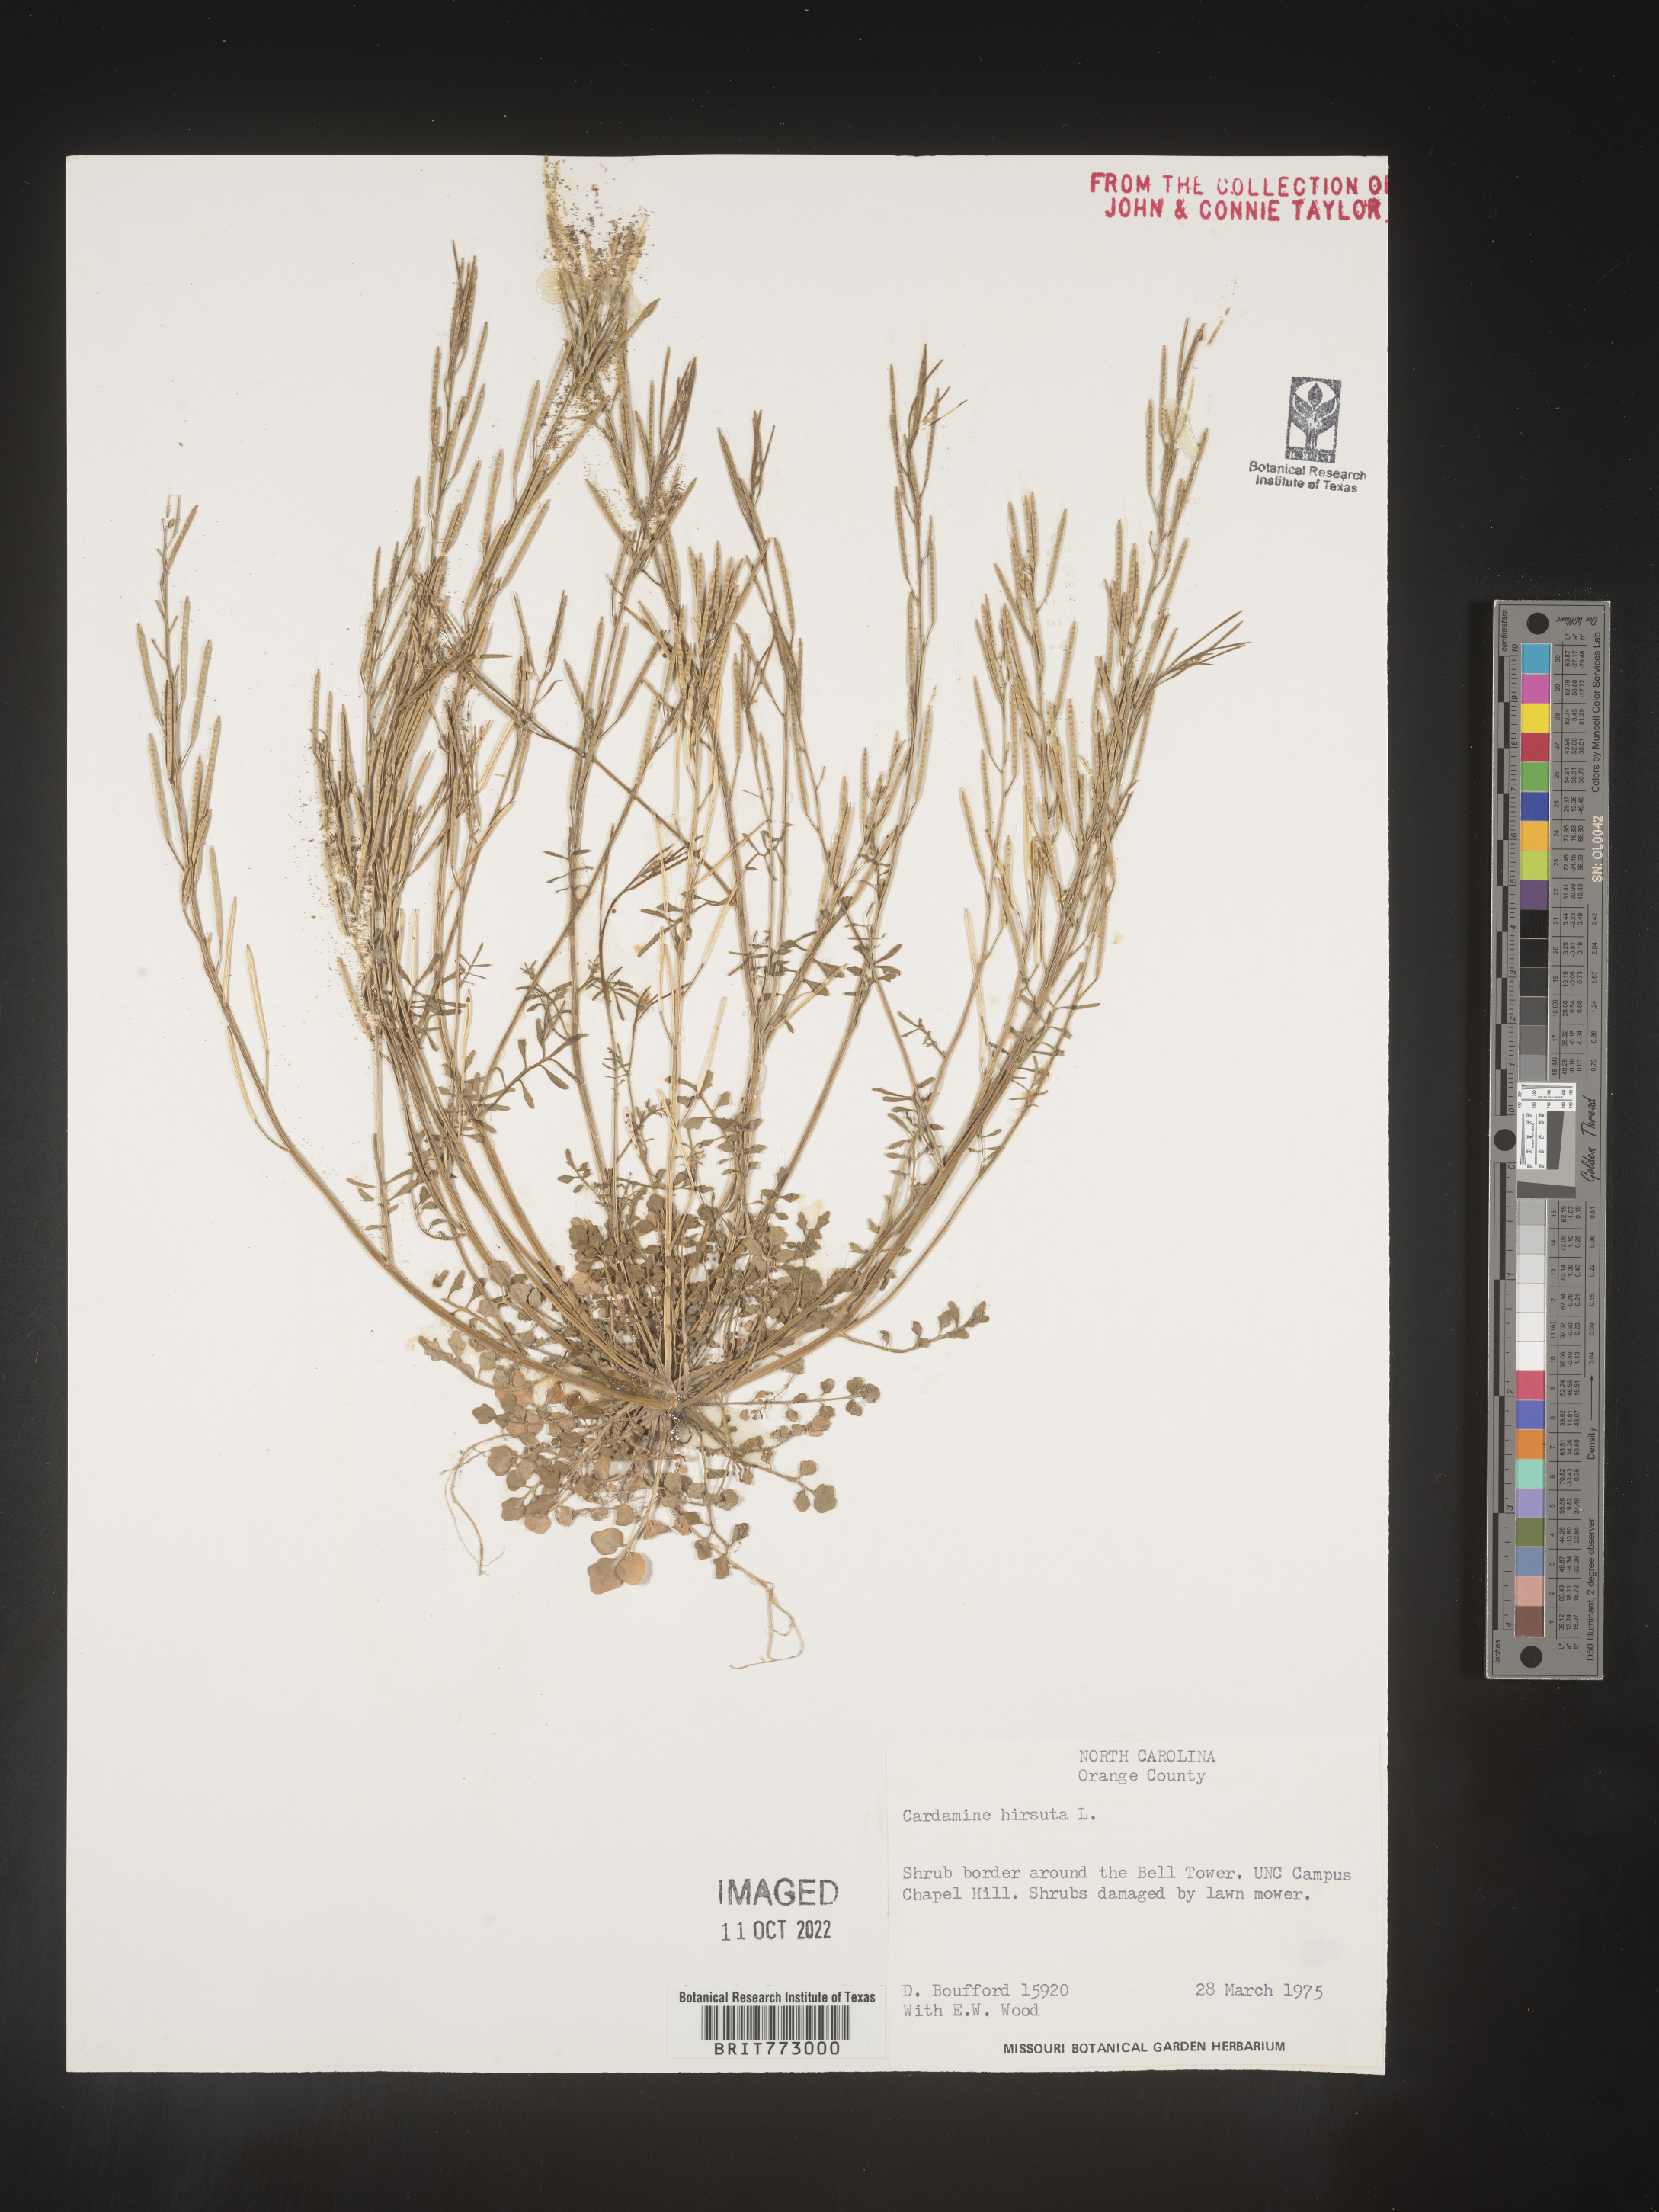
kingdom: Plantae
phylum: Tracheophyta
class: Magnoliopsida
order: Brassicales
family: Brassicaceae
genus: Cardamine
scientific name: Cardamine hirsuta
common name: Hairy bittercress
